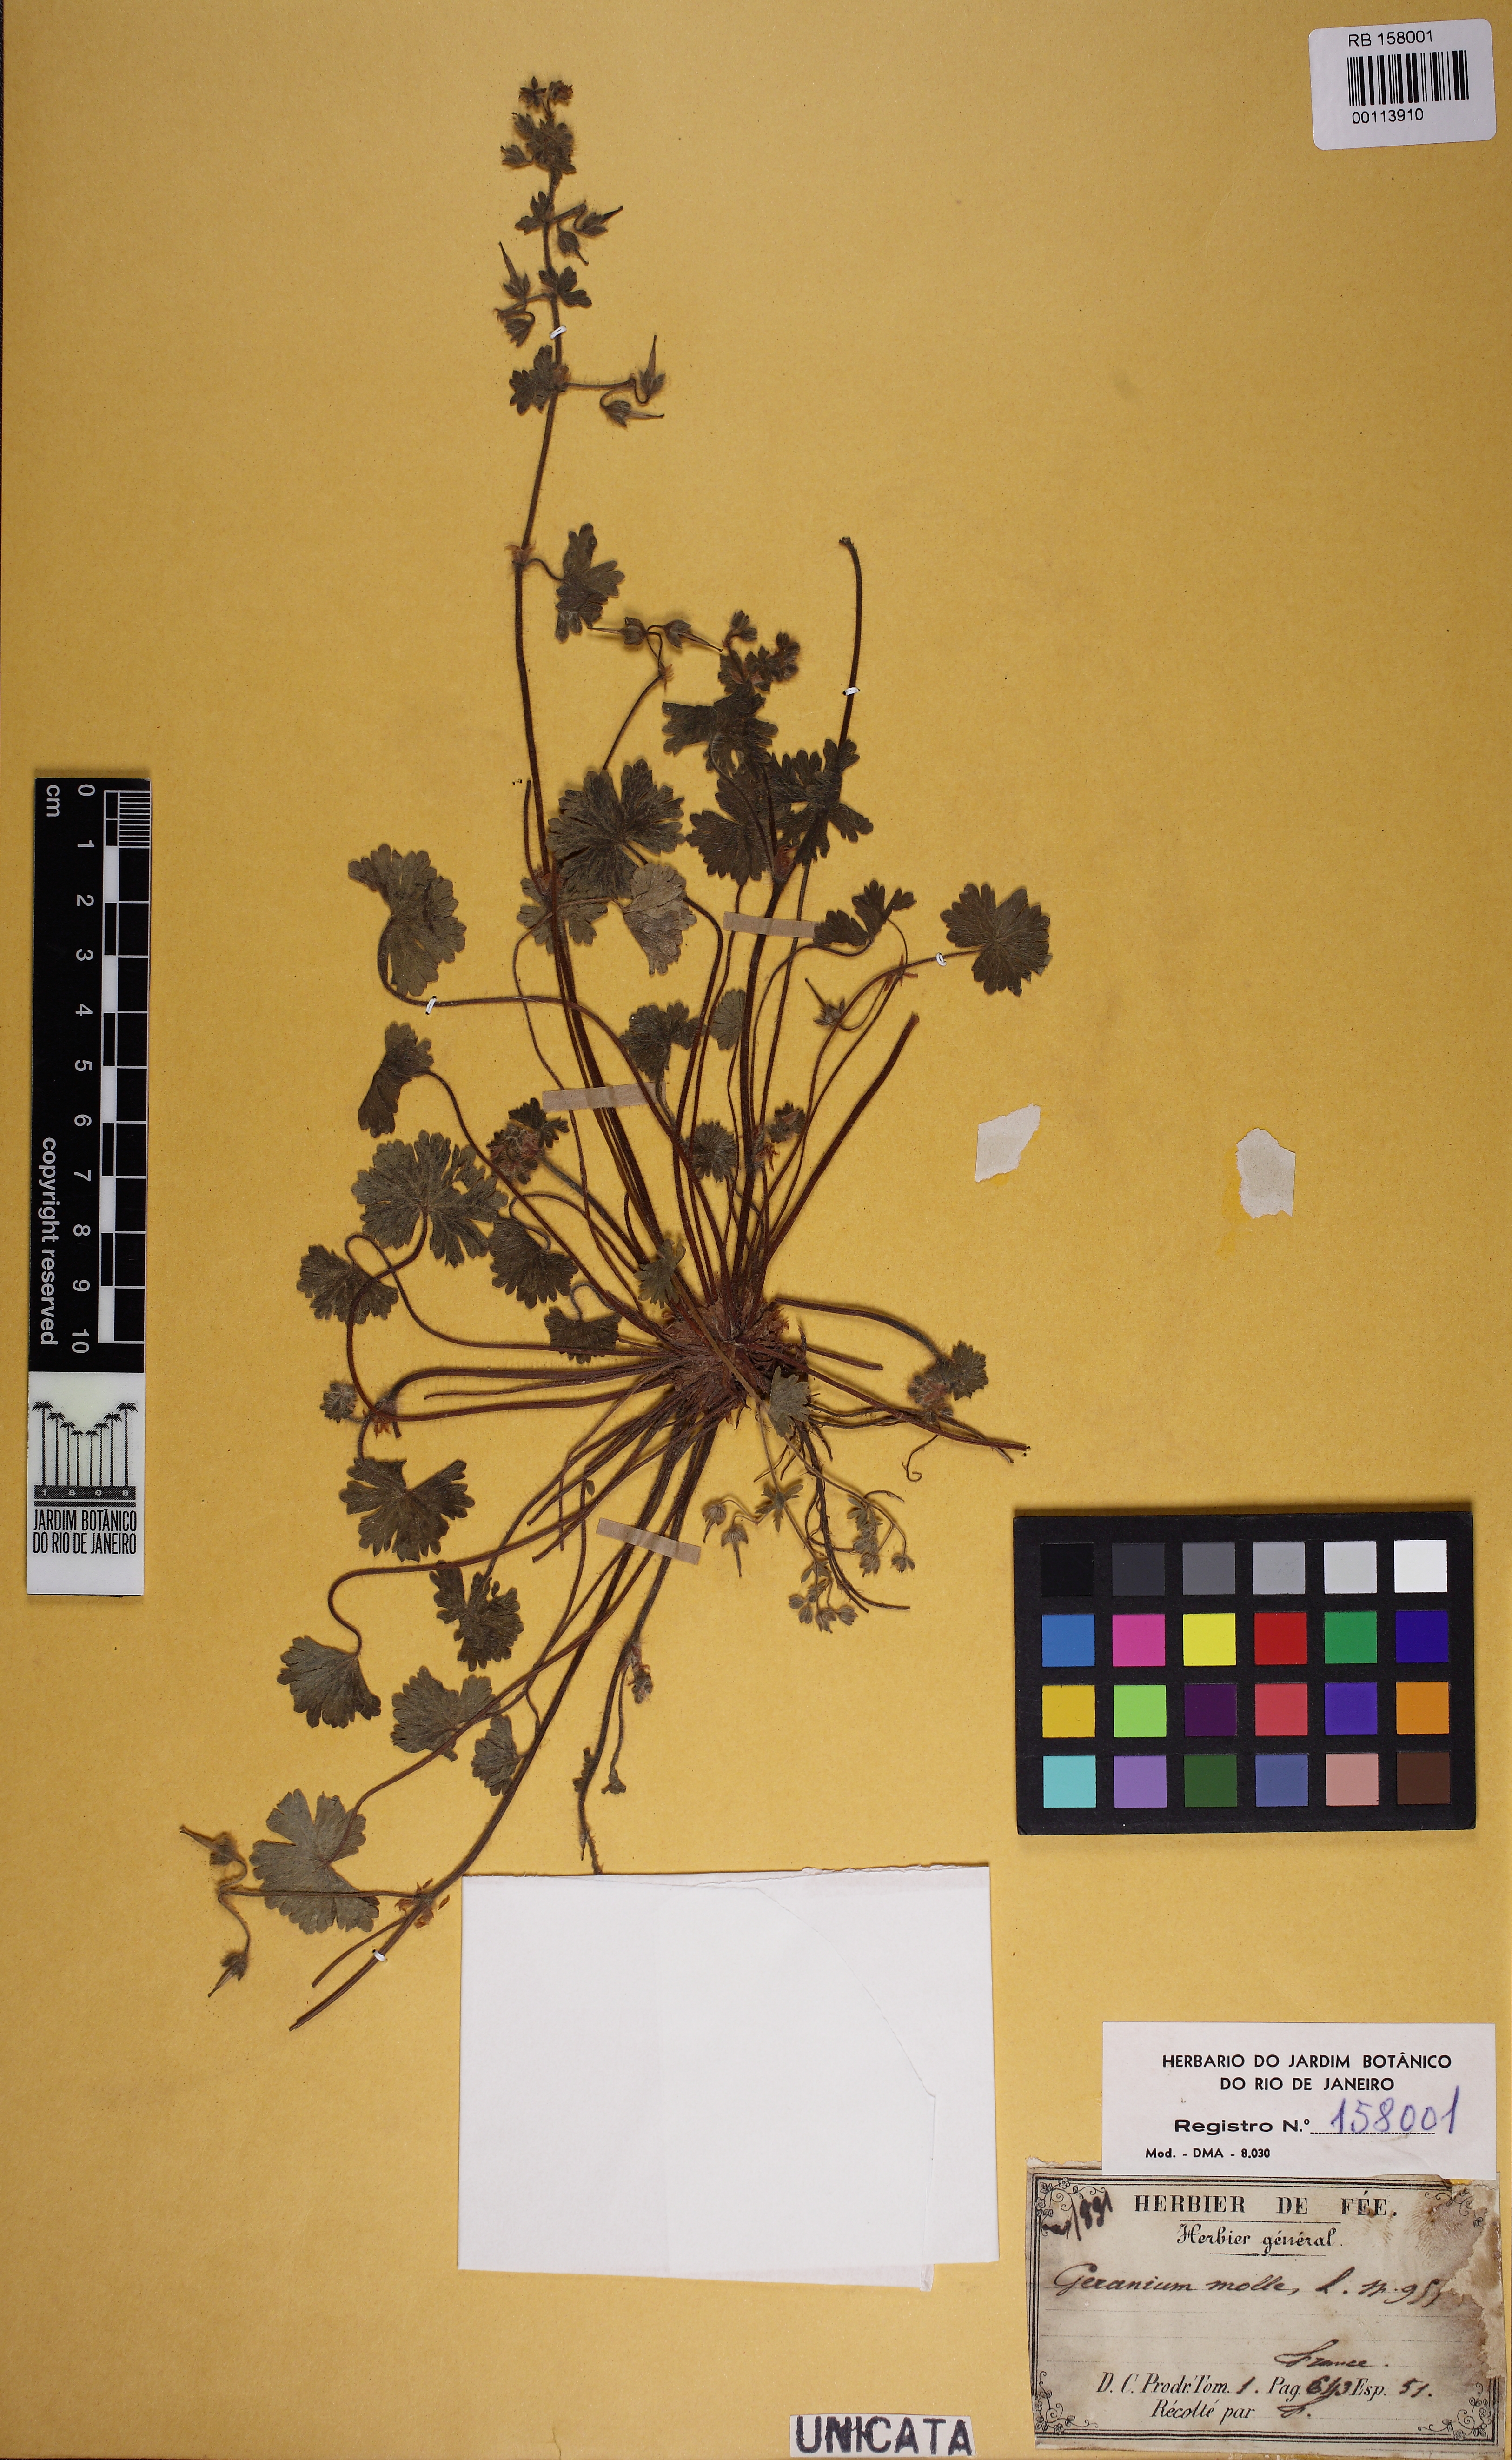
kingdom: Plantae
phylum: Tracheophyta
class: Magnoliopsida
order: Geraniales
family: Geraniaceae
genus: Geranium
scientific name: Geranium molle
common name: Dove's-foot crane's-bill
